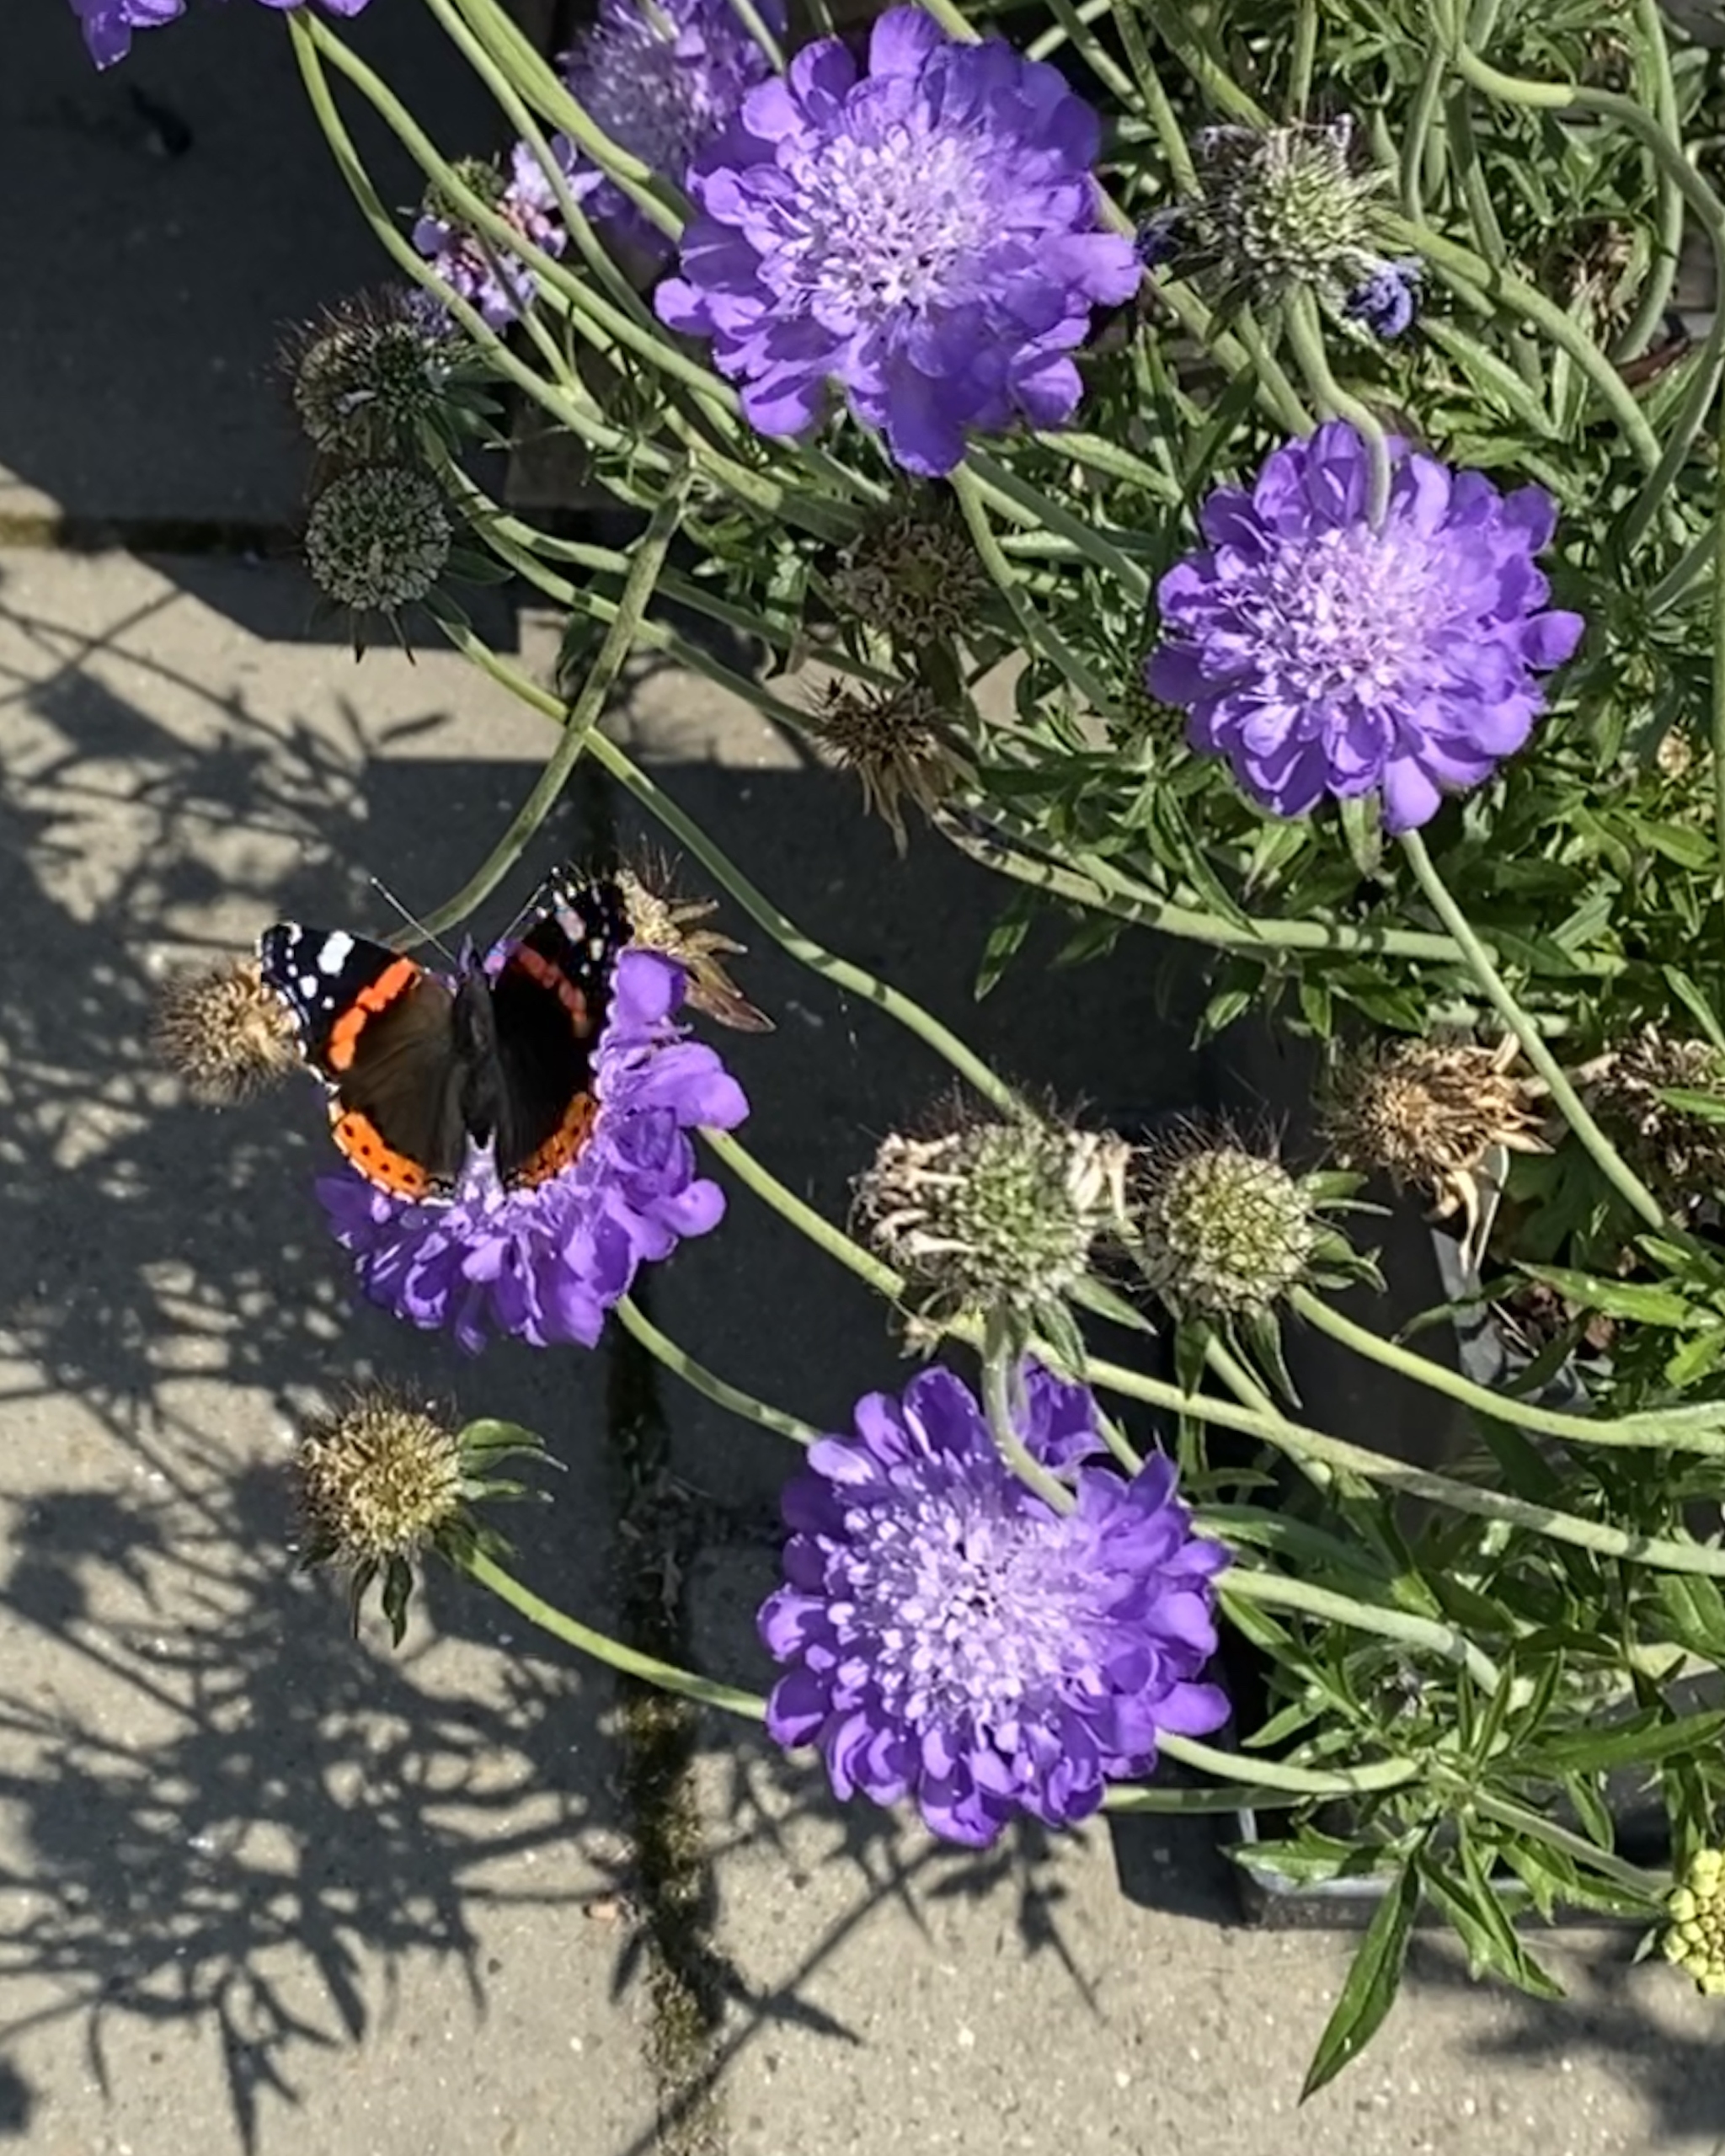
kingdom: Animalia
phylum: Arthropoda
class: Insecta
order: Lepidoptera
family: Nymphalidae
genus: Vanessa
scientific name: Vanessa atalanta
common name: Admiral
